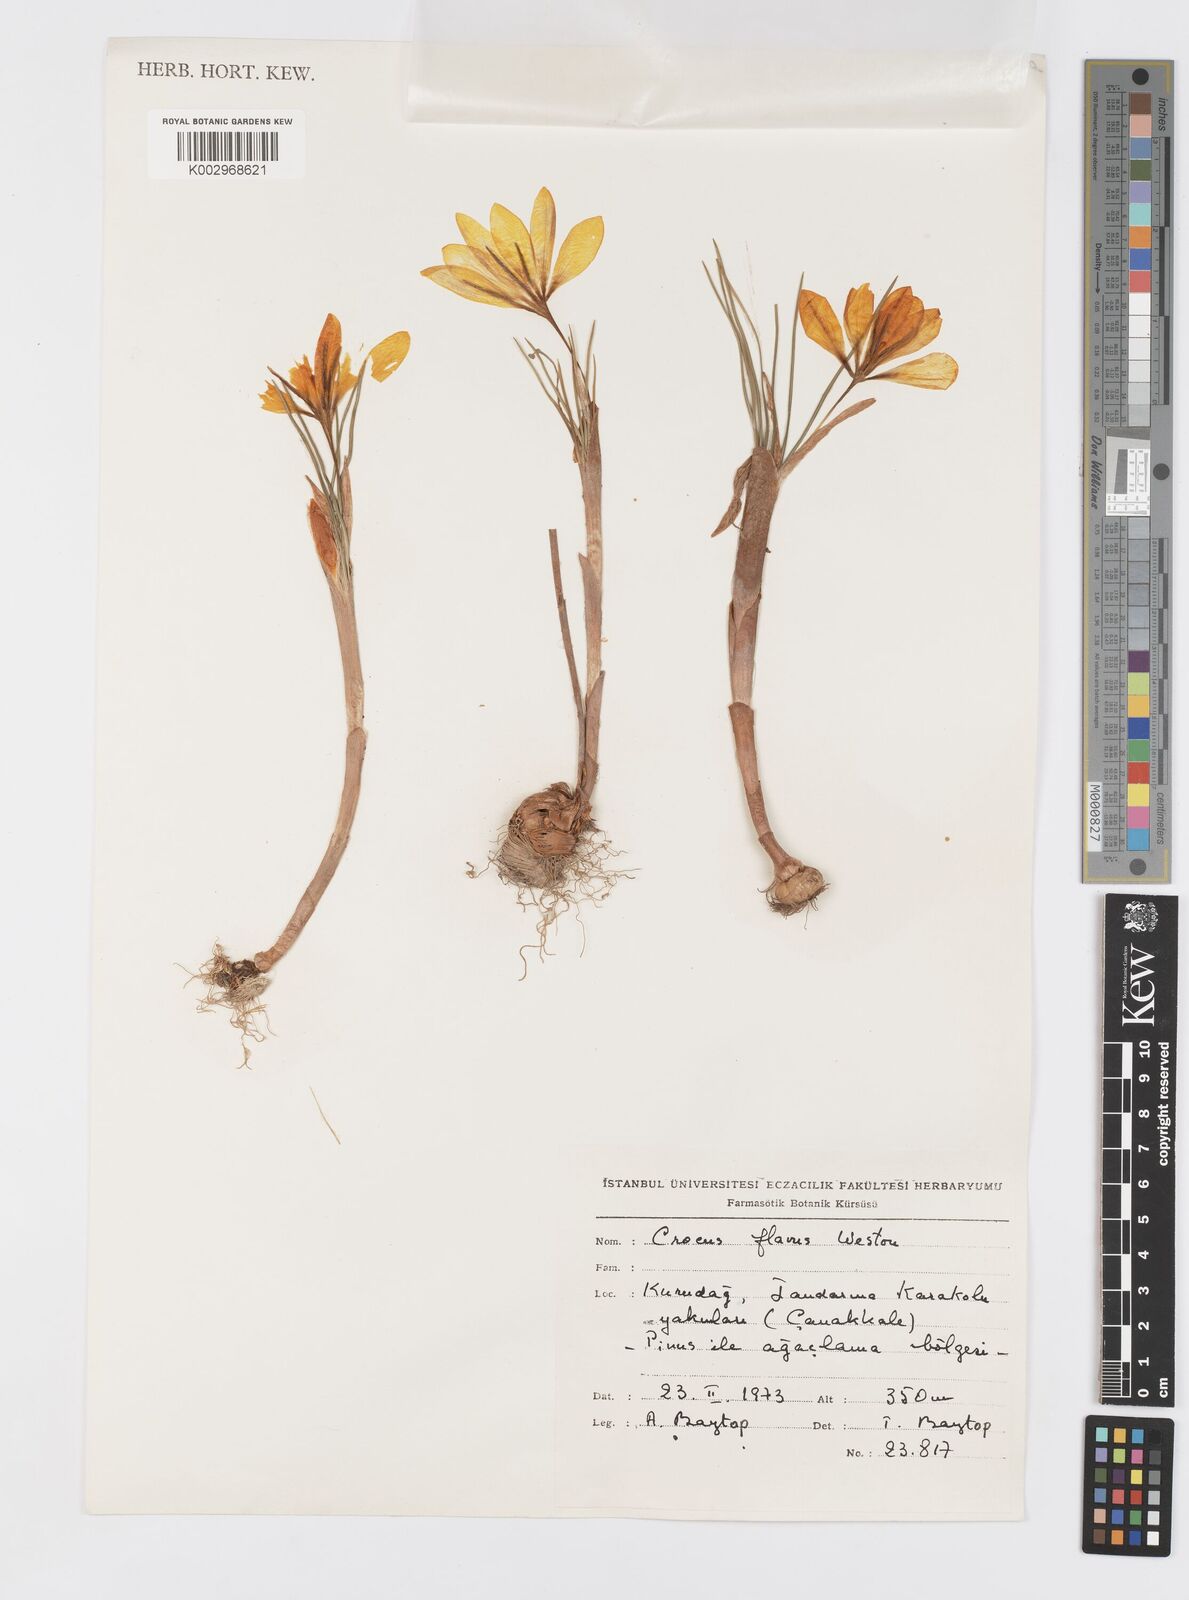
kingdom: Plantae
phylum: Tracheophyta
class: Liliopsida
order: Asparagales
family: Iridaceae
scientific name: Iridaceae
